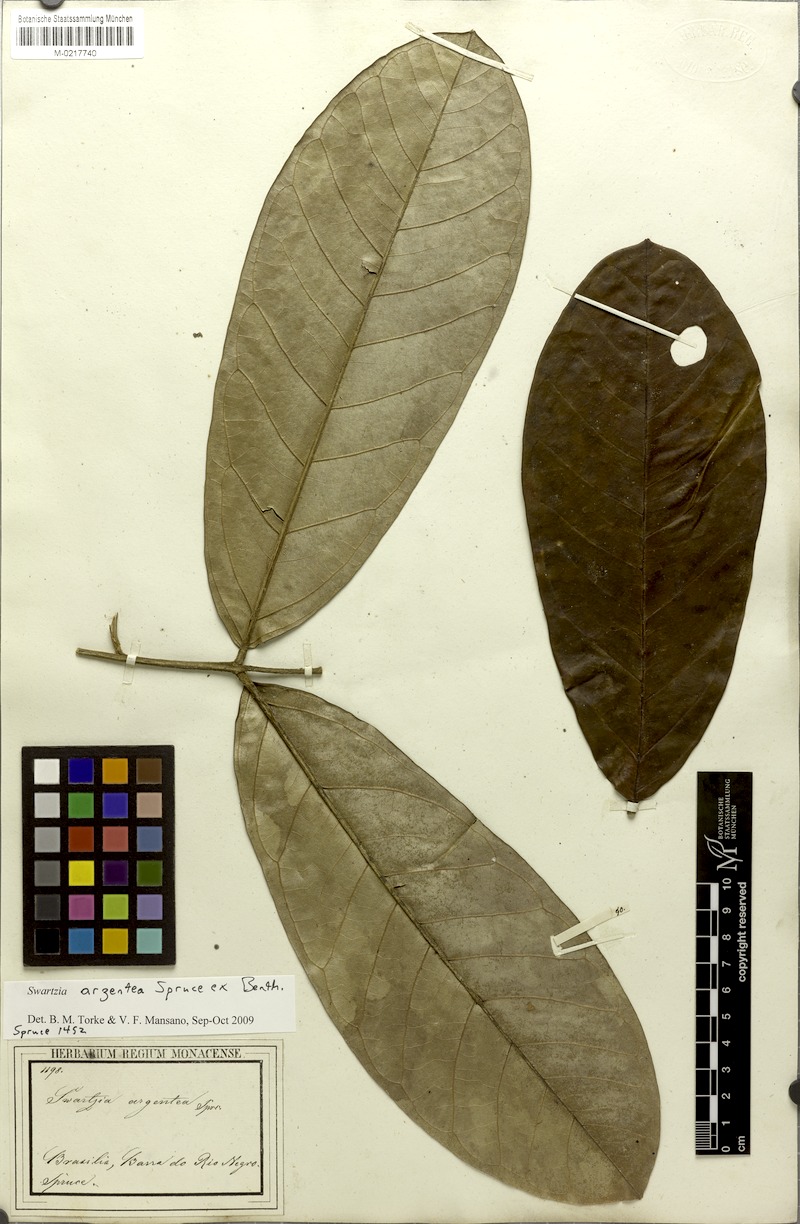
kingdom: Plantae
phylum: Tracheophyta
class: Magnoliopsida
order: Fabales
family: Fabaceae
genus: Swartzia
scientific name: Swartzia argentea
